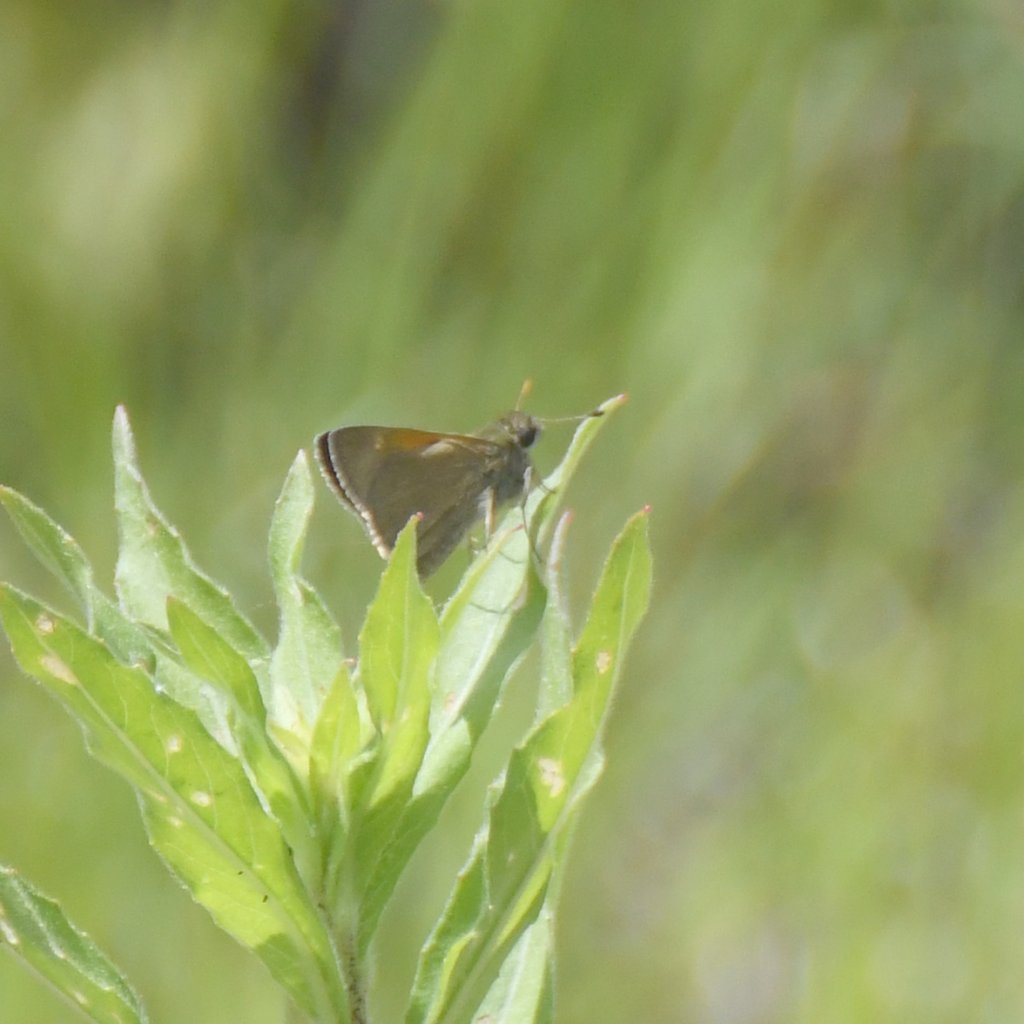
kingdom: Animalia
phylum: Arthropoda
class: Insecta
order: Lepidoptera
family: Hesperiidae
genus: Polites
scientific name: Polites themistocles
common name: Tawny-edged Skipper
